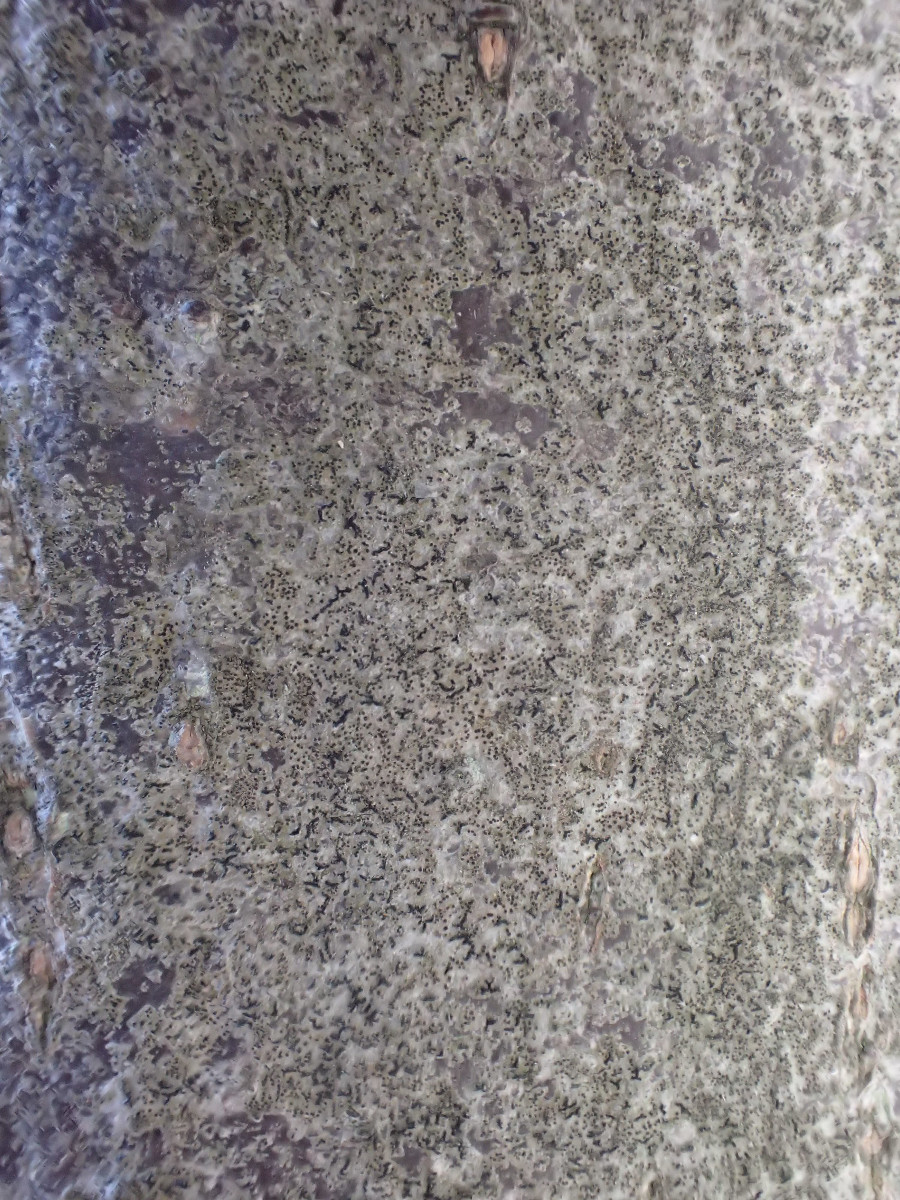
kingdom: Fungi
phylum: Ascomycota
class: Arthoniomycetes
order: Arthoniales
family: Opegraphaceae
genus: Opegrapha
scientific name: Opegrapha niveoatra
